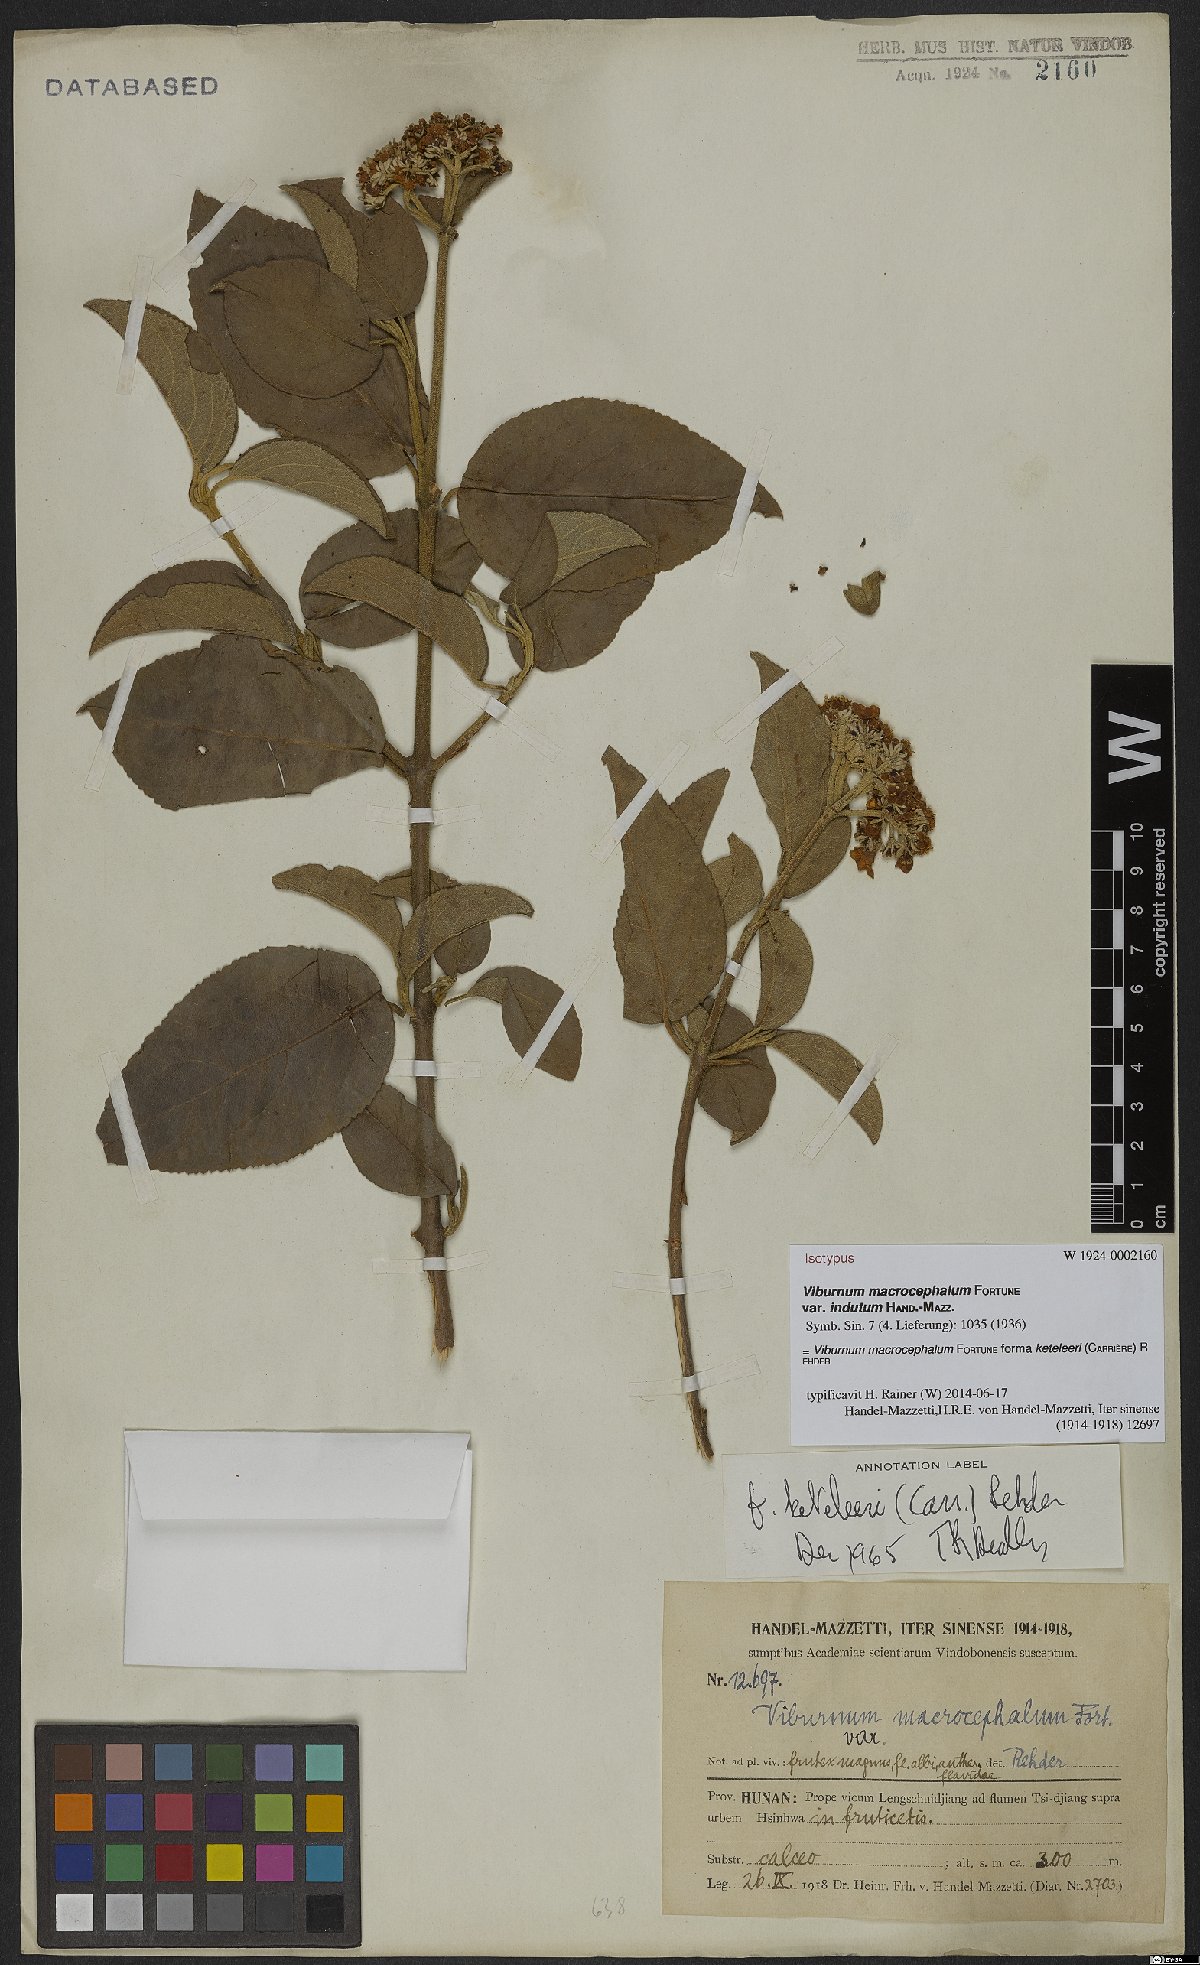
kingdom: Plantae
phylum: Tracheophyta
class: Magnoliopsida
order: Dipsacales
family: Viburnaceae
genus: Viburnum
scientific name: Viburnum macrocephalum
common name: Chinese snowball viburnum
